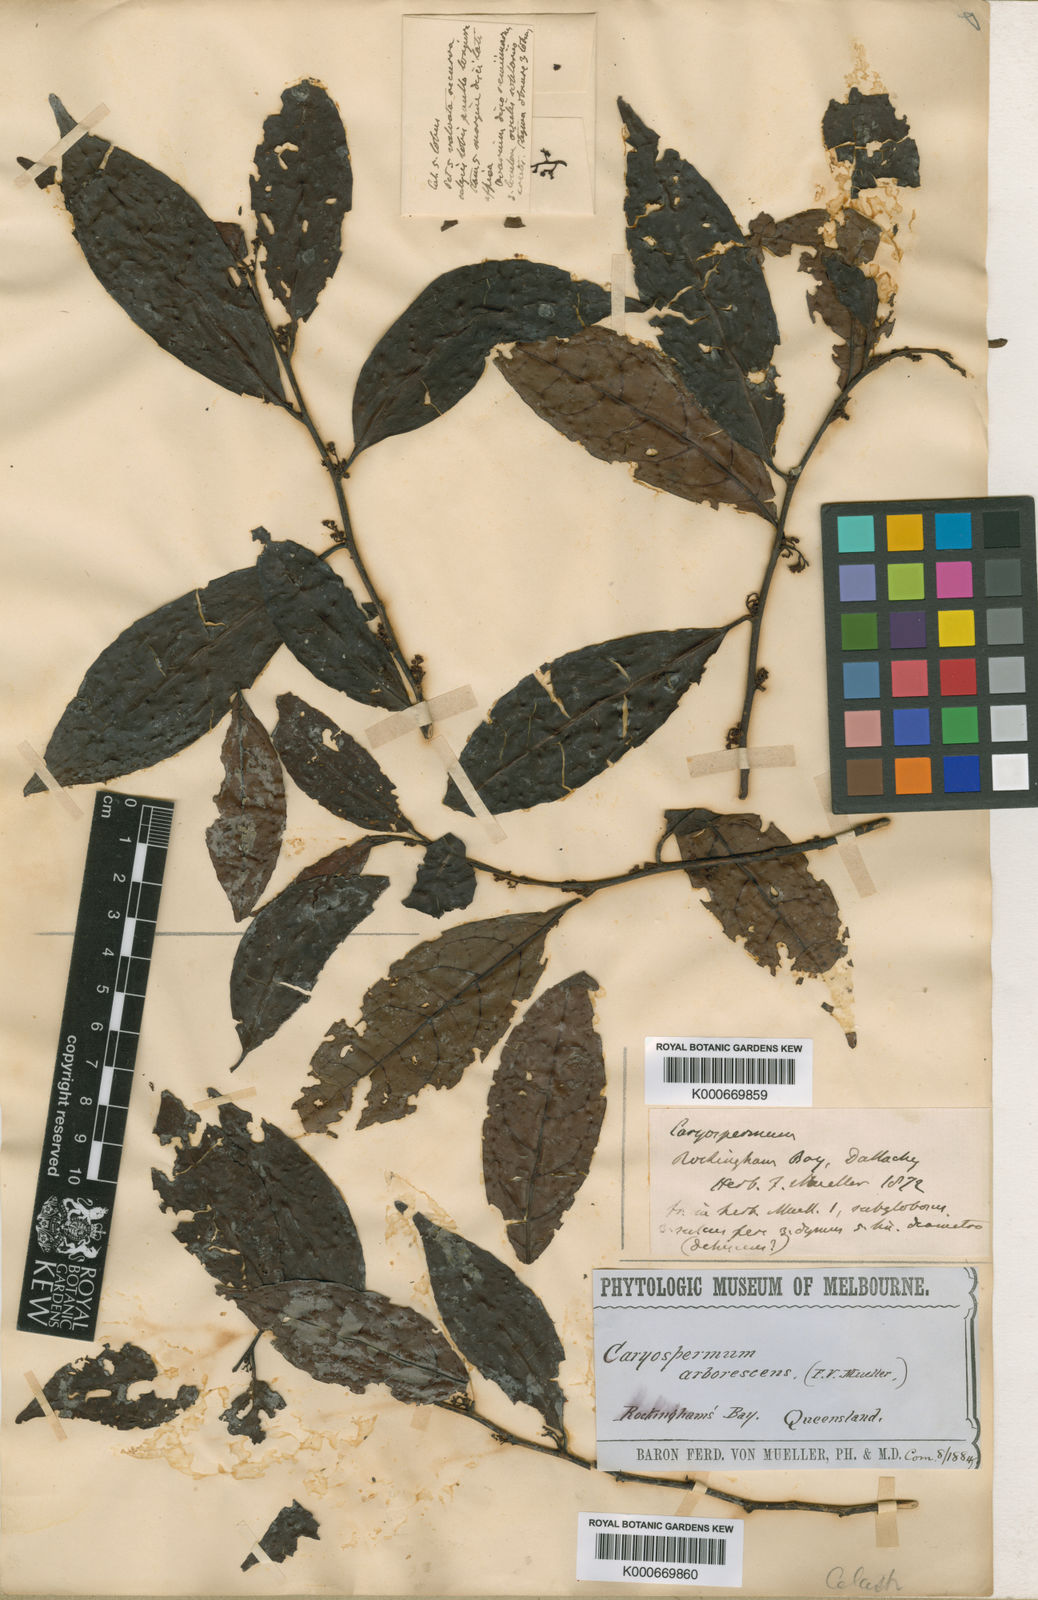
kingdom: Plantae
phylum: Tracheophyta
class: Magnoliopsida
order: Huerteales
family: Dipentodontaceae
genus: Perrottetia
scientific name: Perrottetia alpestris
